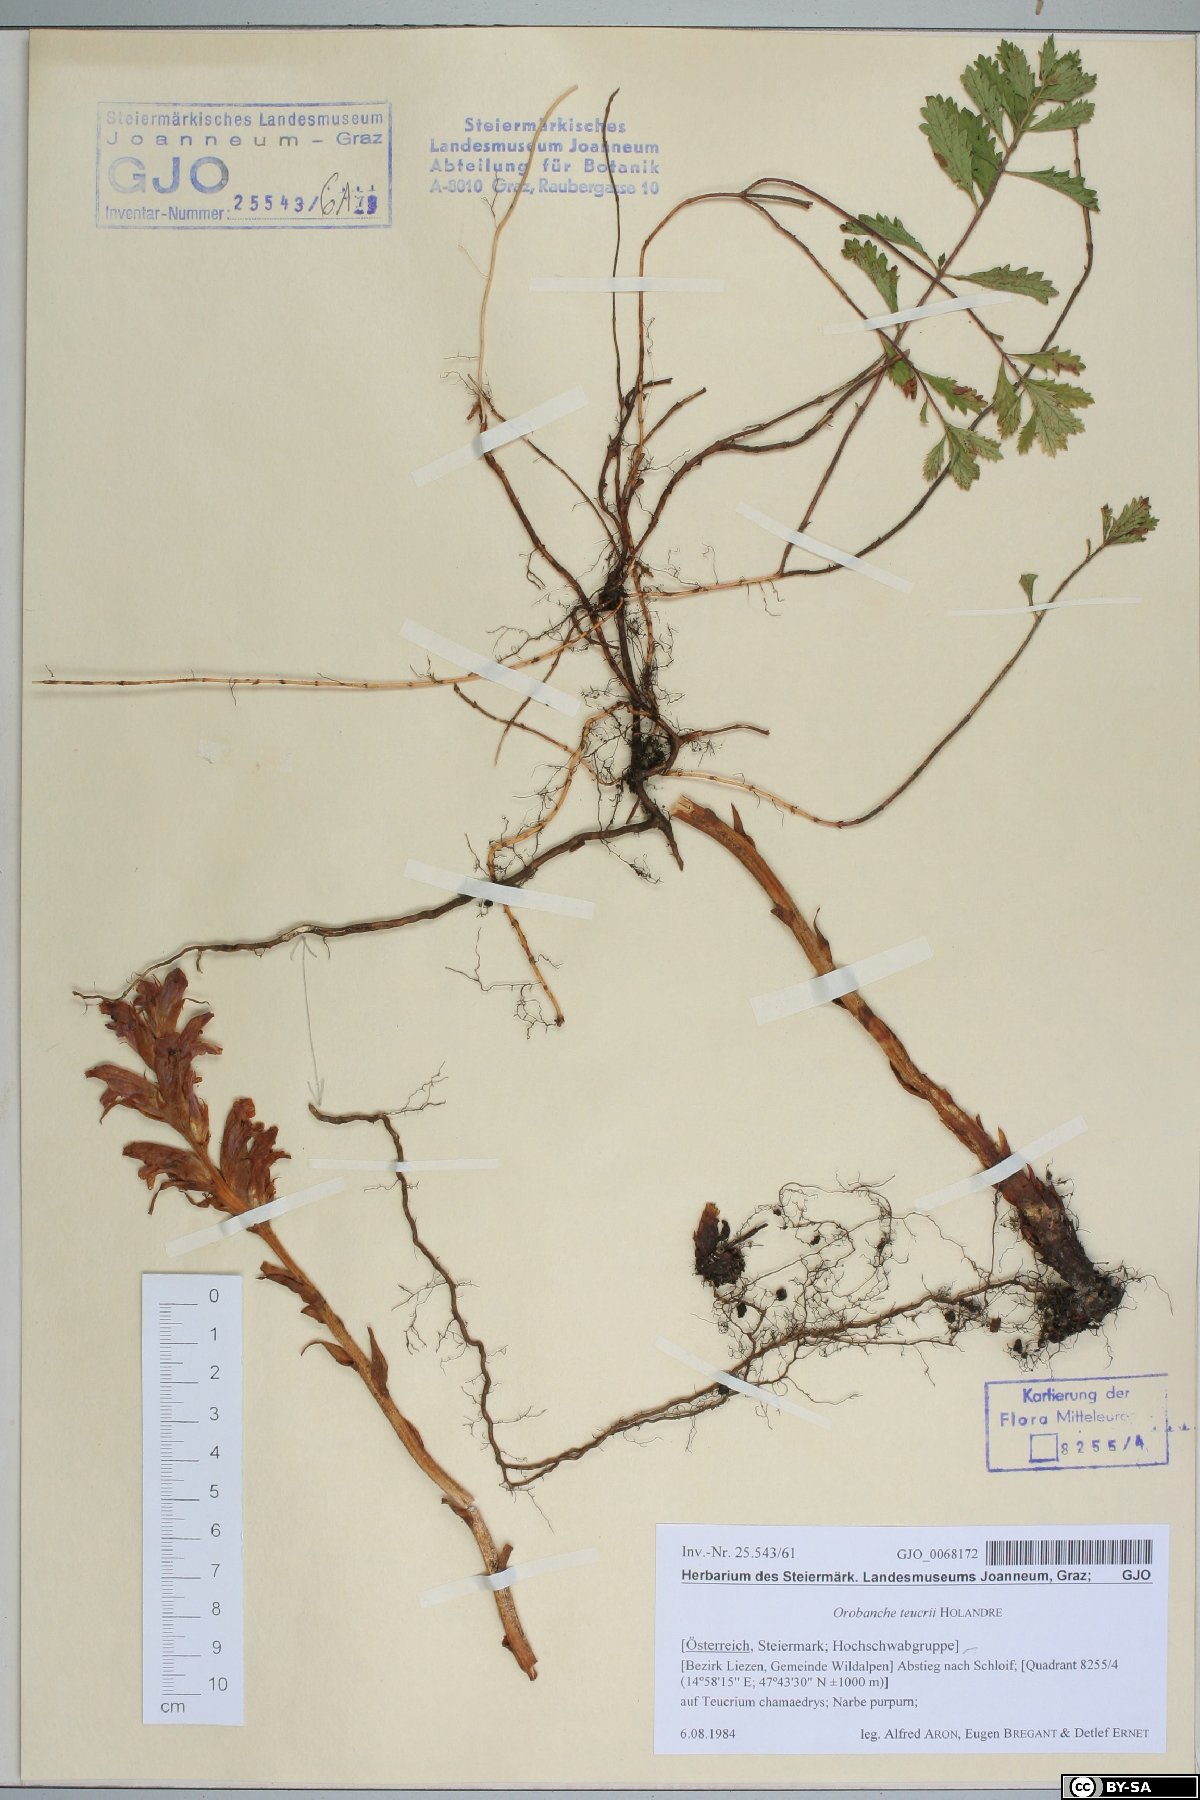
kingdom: Plantae
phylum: Tracheophyta
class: Magnoliopsida
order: Lamiales
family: Orobanchaceae
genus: Orobanche
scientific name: Orobanche teucrii
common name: Germander broomrape
